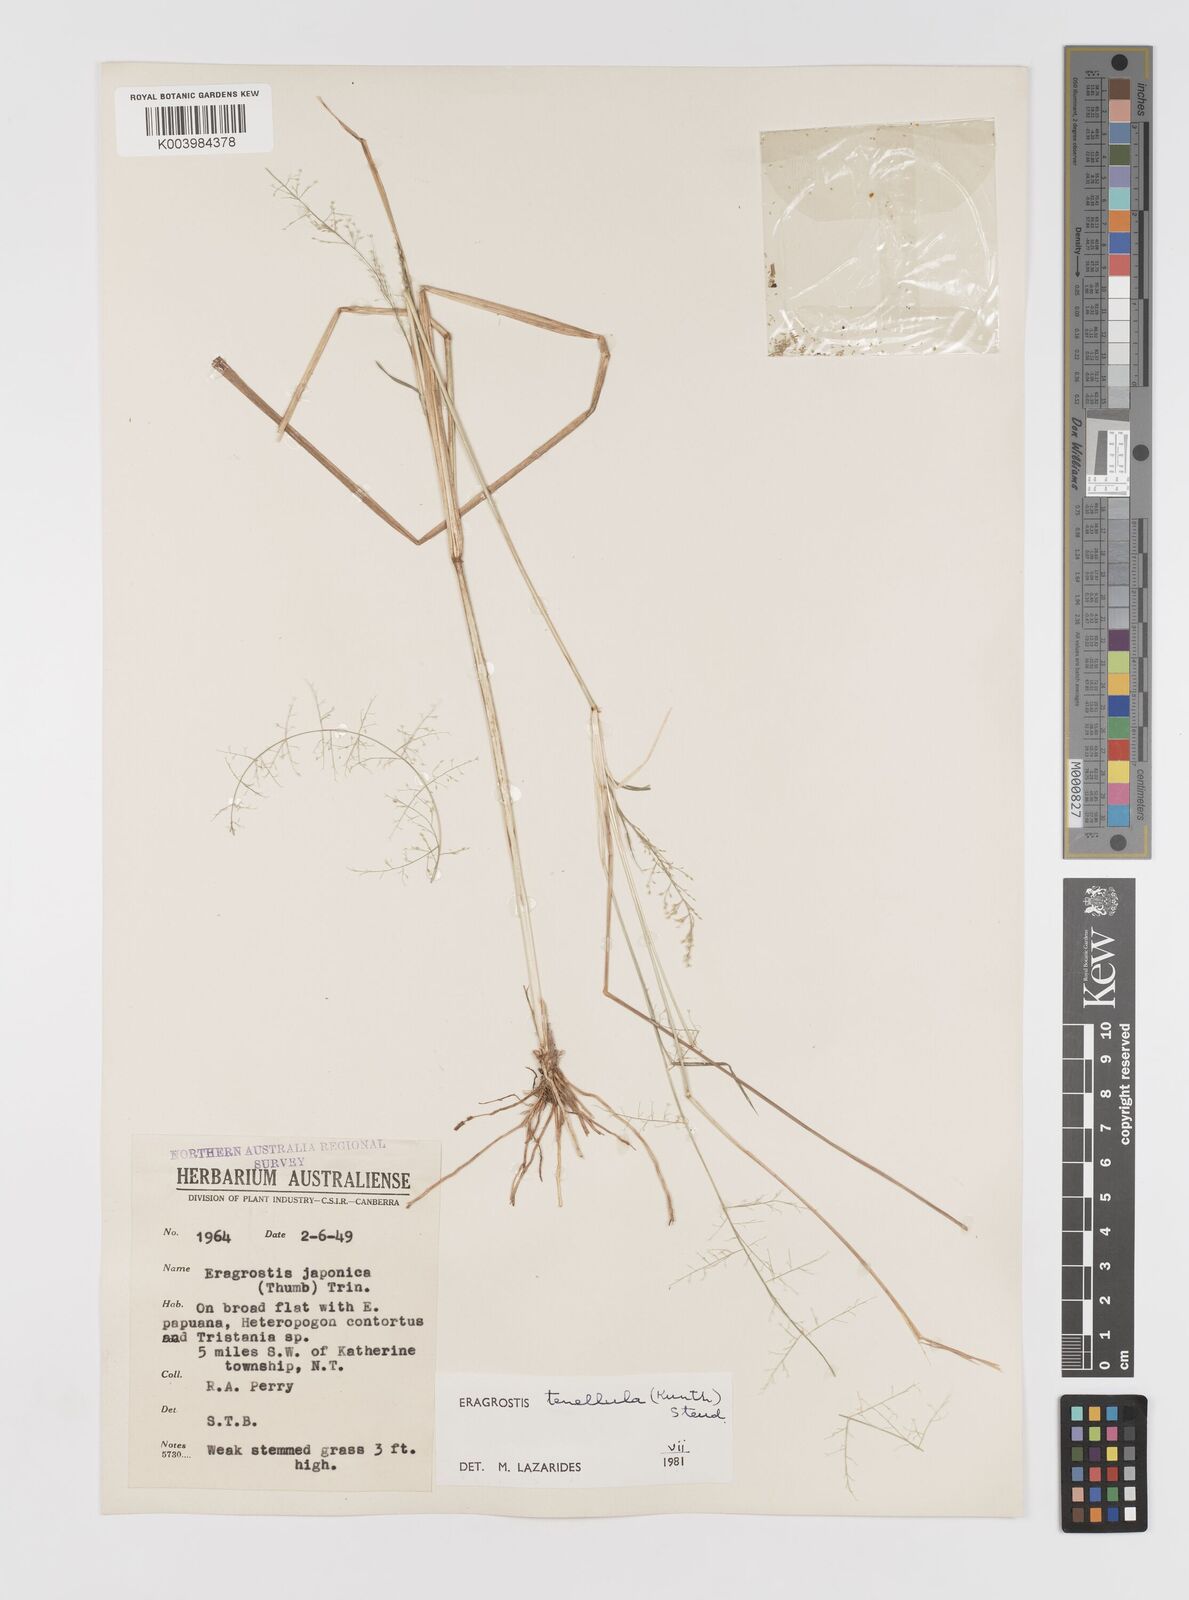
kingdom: Plantae
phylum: Tracheophyta
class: Liliopsida
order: Poales
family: Poaceae
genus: Eragrostis
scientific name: Eragrostis tenellula
